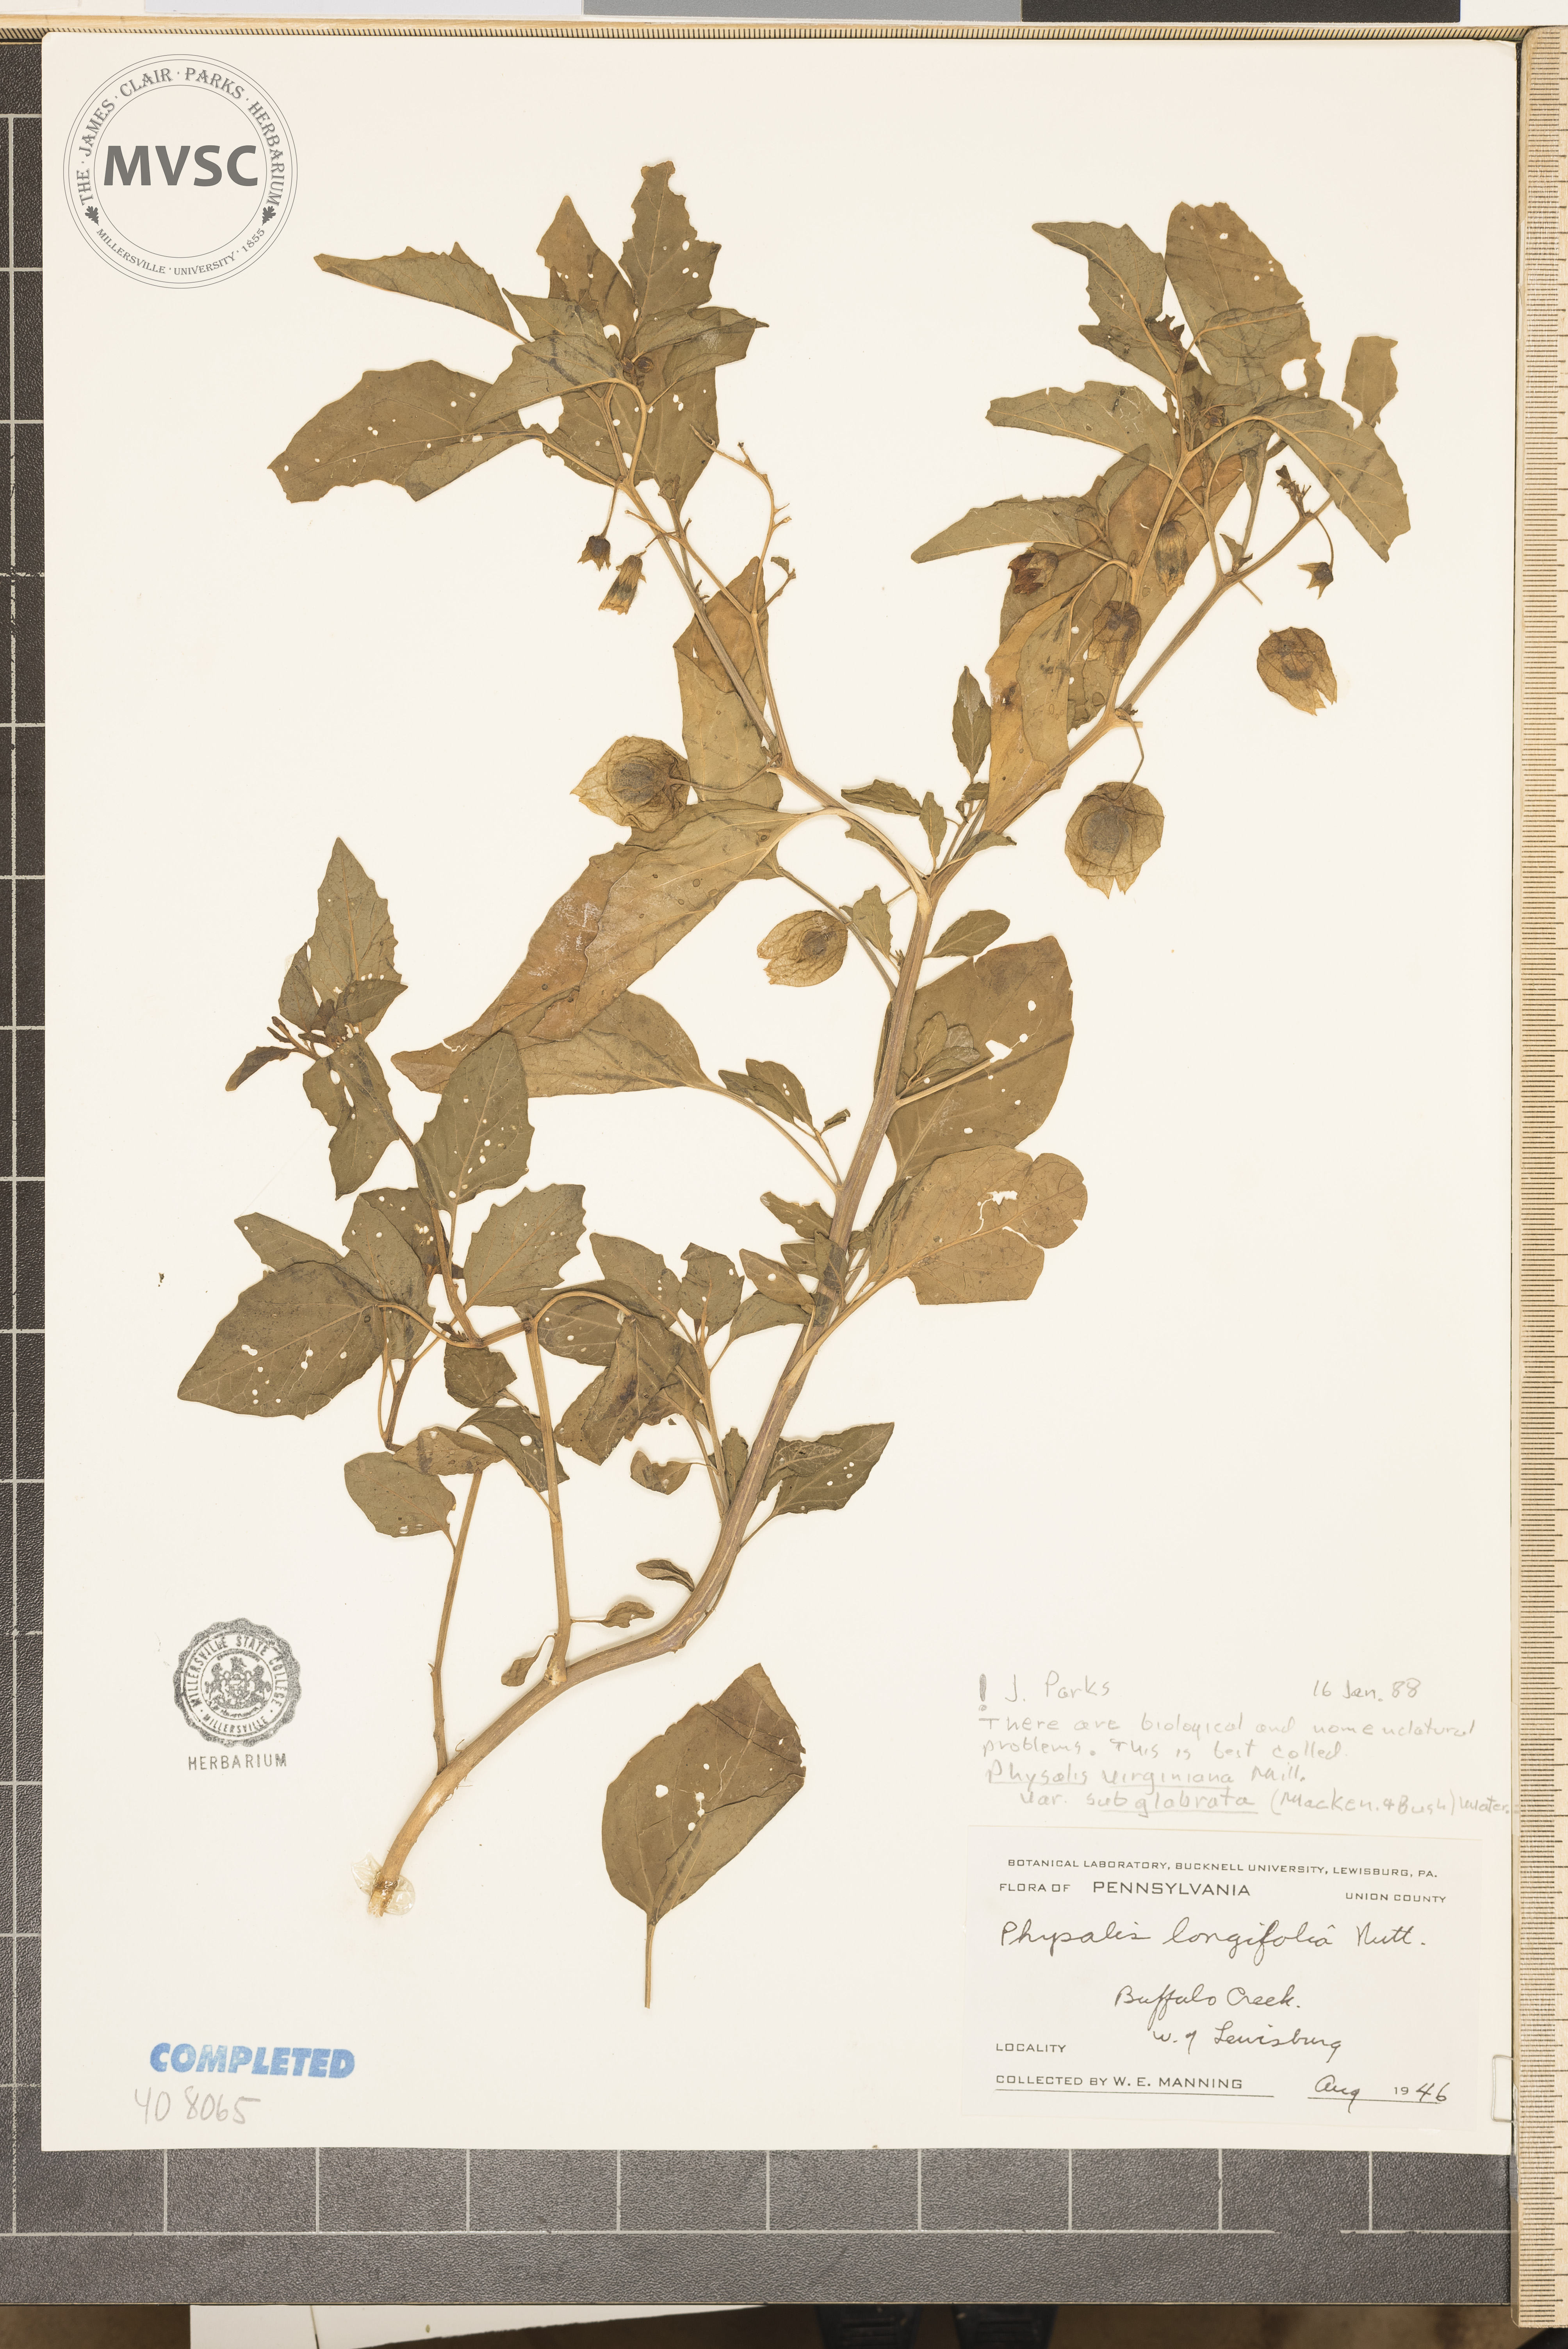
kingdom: Plantae
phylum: Tracheophyta
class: Magnoliopsida
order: Solanales
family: Solanaceae
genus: Physalis
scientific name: Physalis virginiana
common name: Virginia ground-cherry
